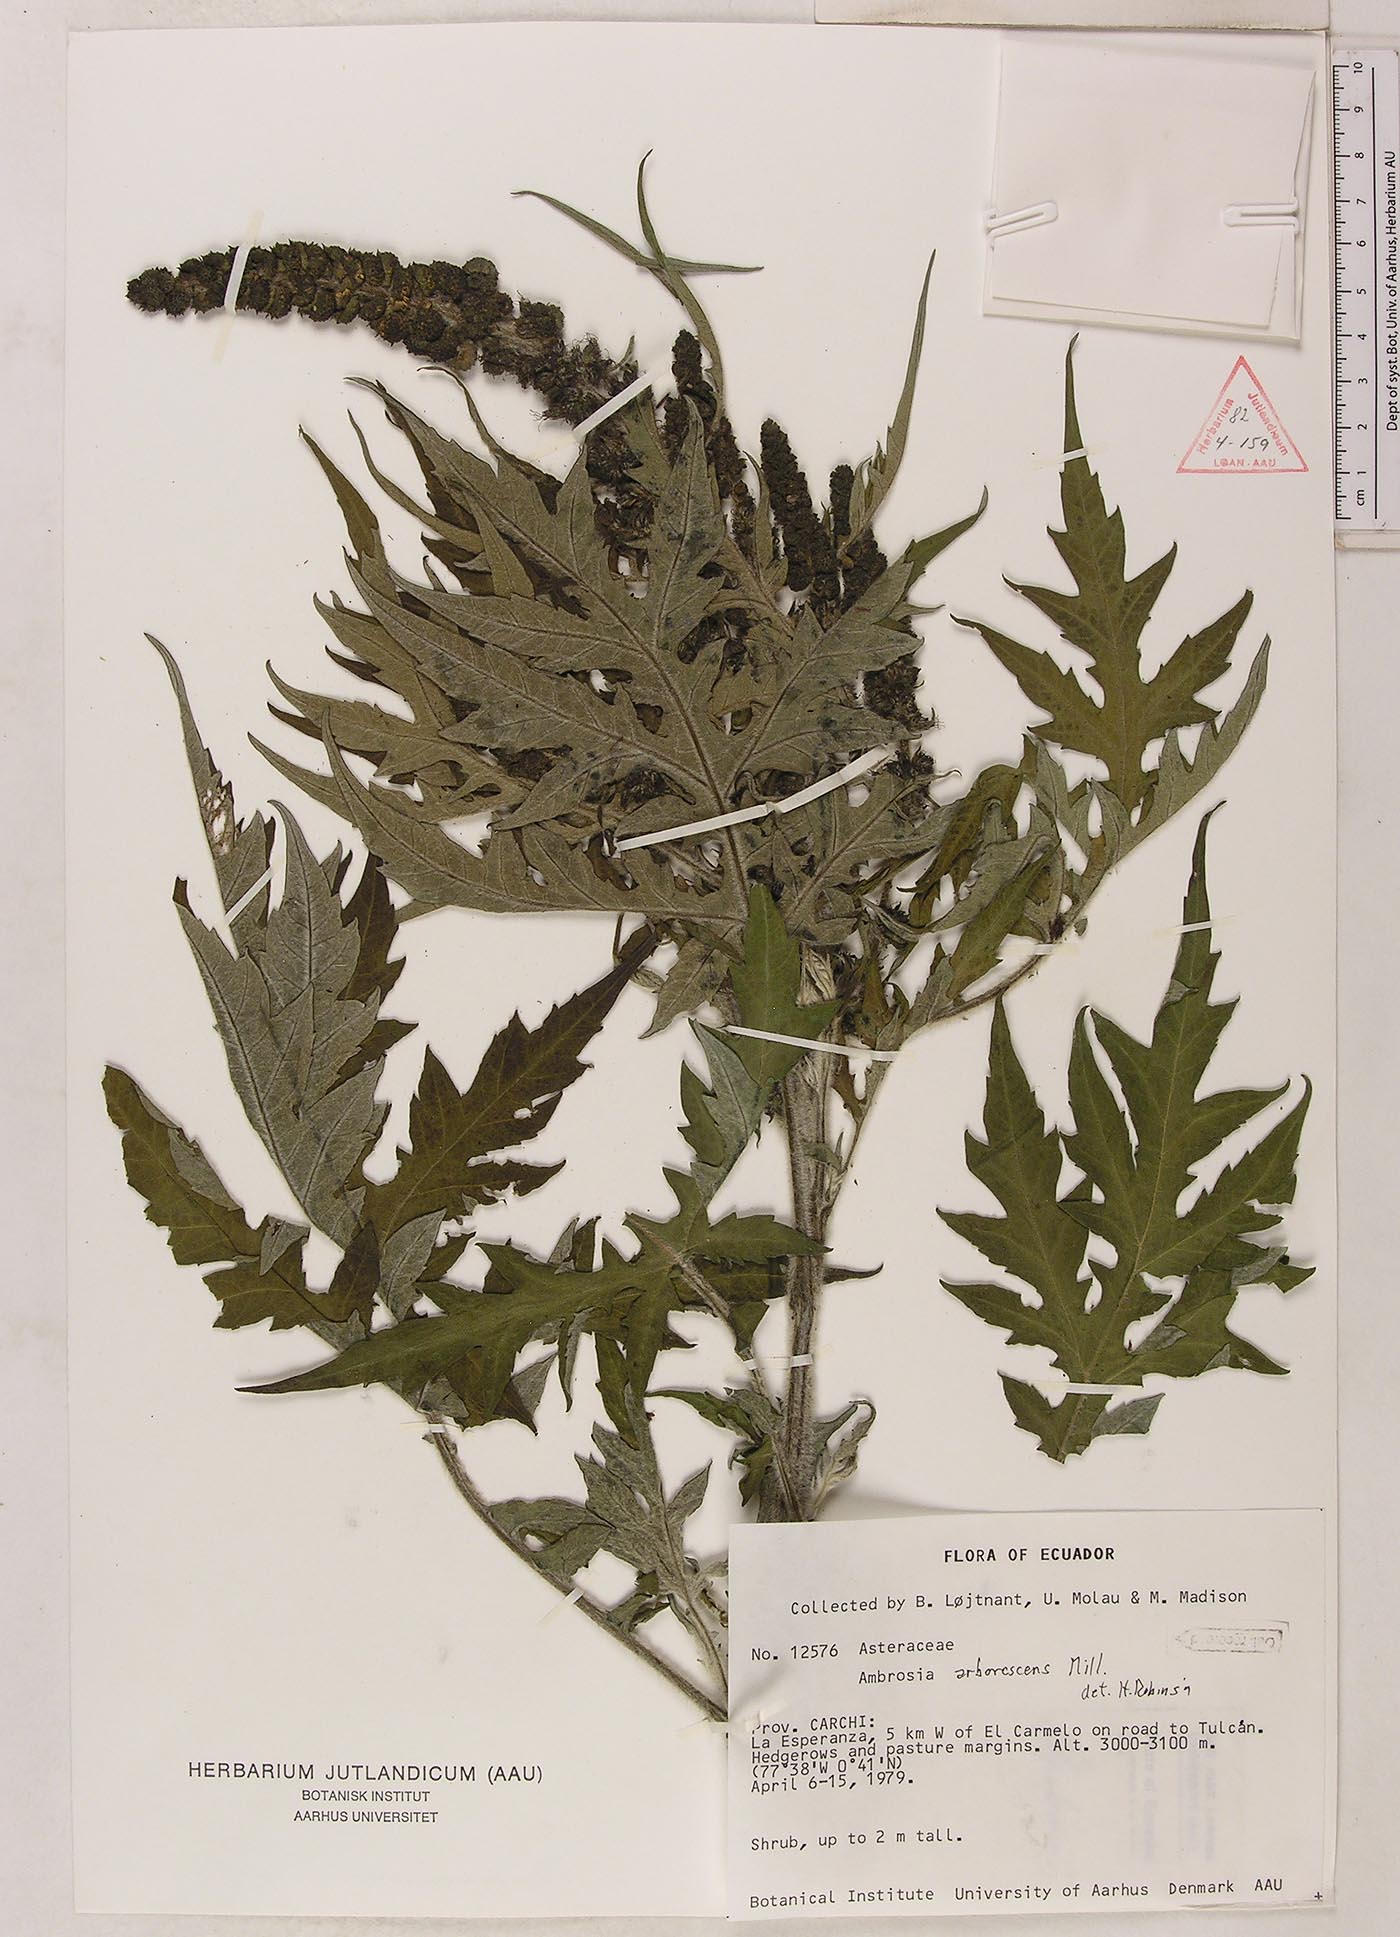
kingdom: Plantae
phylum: Tracheophyta
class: Magnoliopsida
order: Asterales
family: Asteraceae
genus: Ambrosia
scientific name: Ambrosia arborescens
